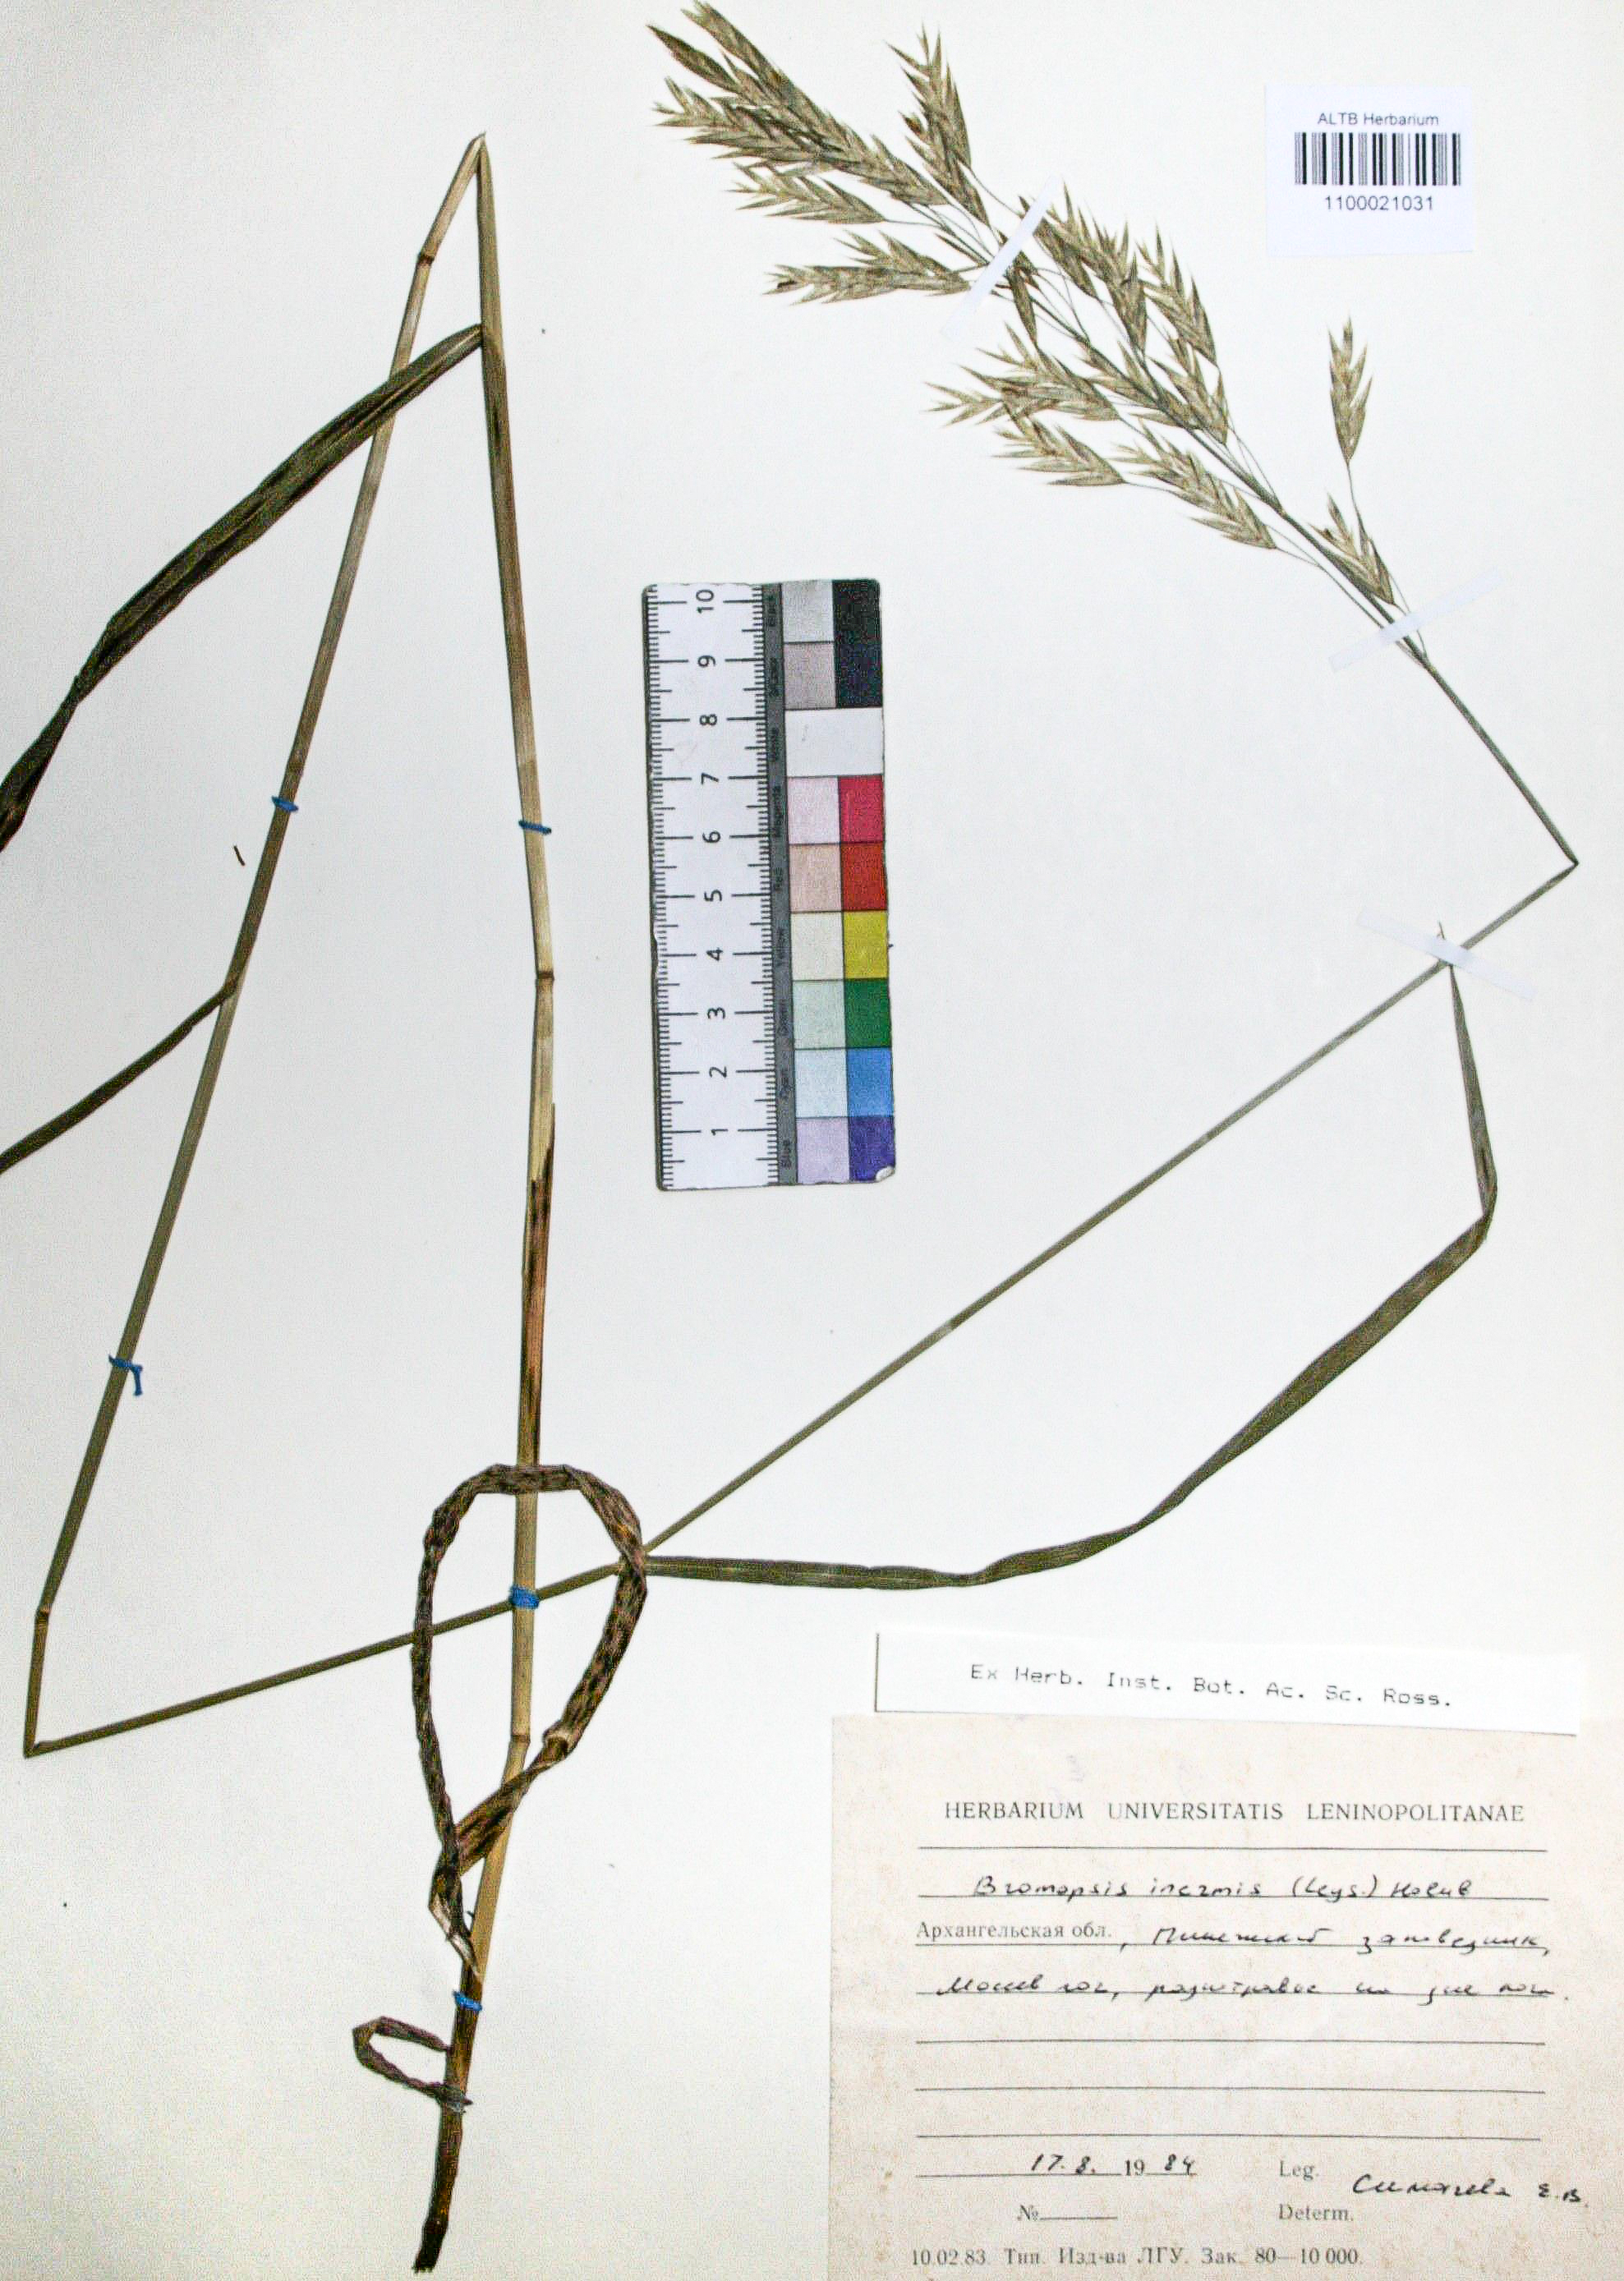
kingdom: Plantae
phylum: Tracheophyta
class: Liliopsida
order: Poales
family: Poaceae
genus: Bromus
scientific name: Bromus inermis
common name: Smooth brome
